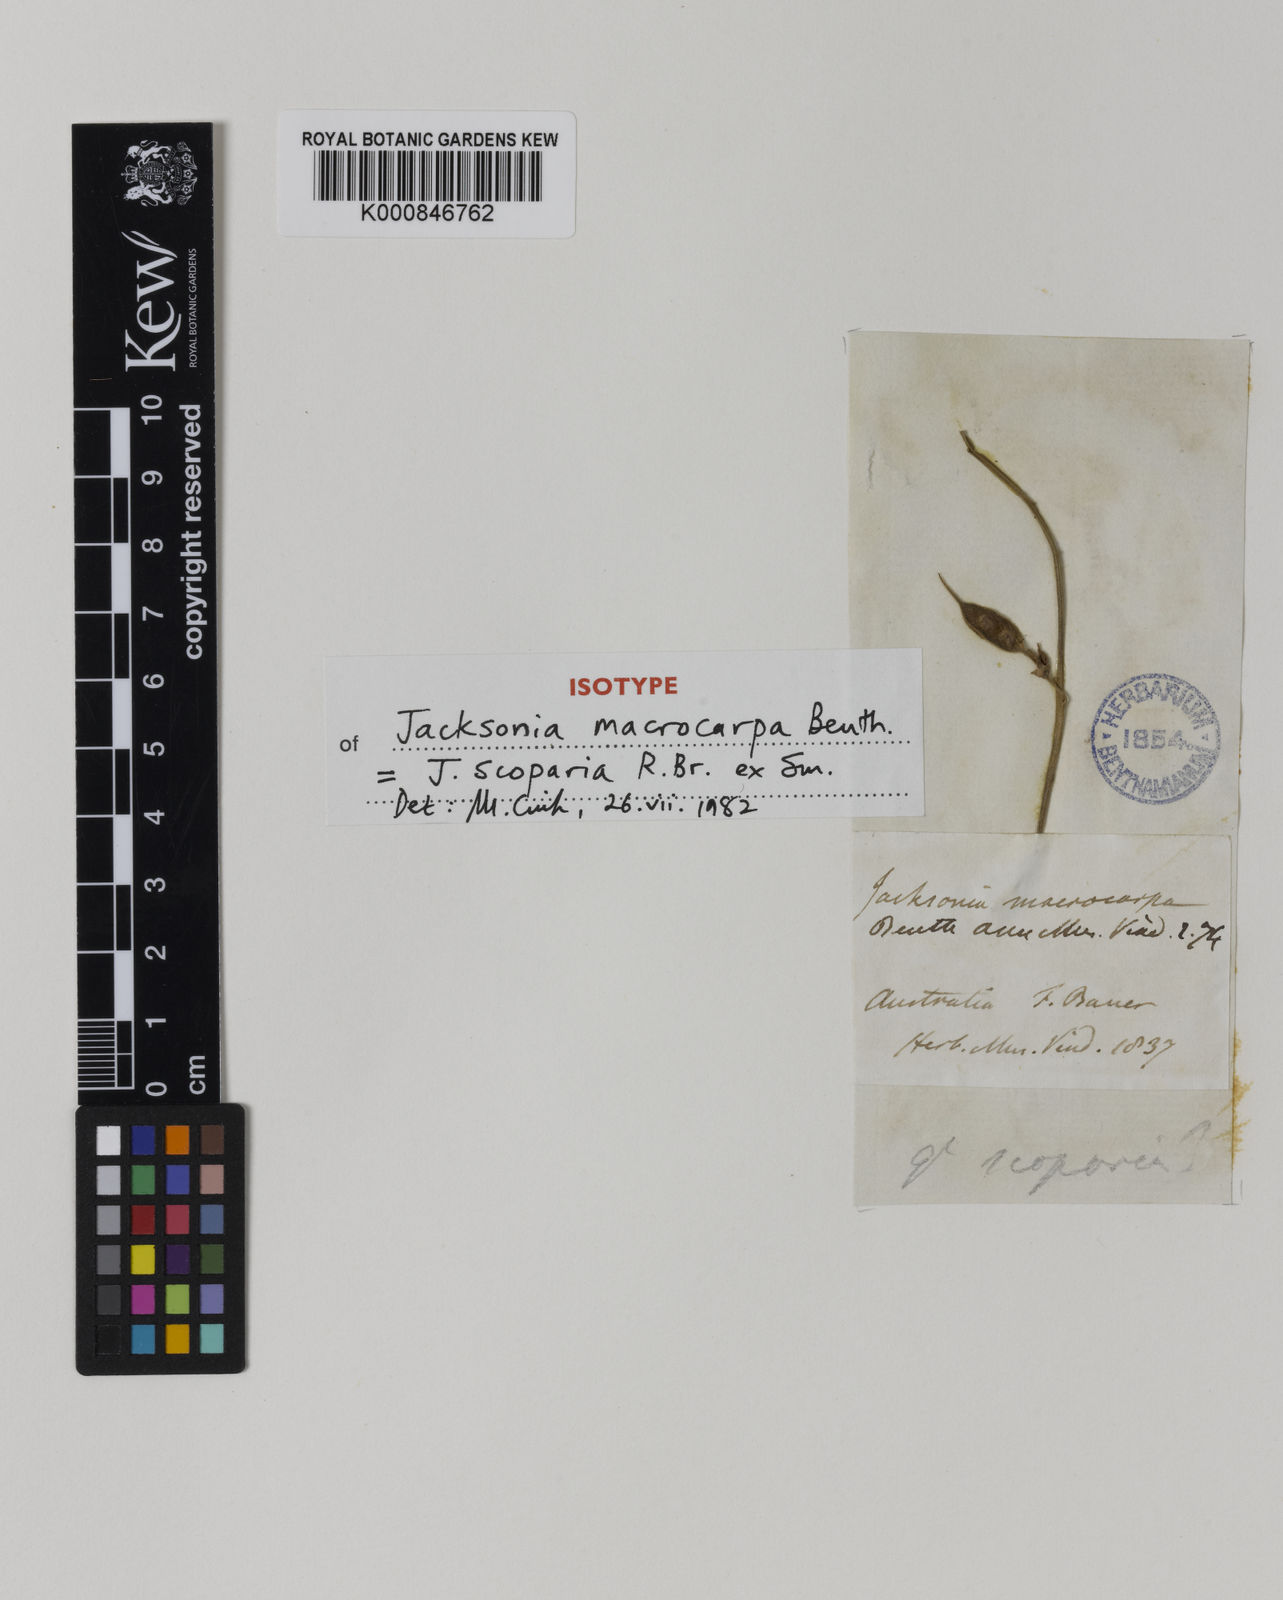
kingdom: Plantae
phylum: Tracheophyta
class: Magnoliopsida
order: Fabales
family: Fabaceae
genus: Jacksonia
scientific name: Jacksonia
